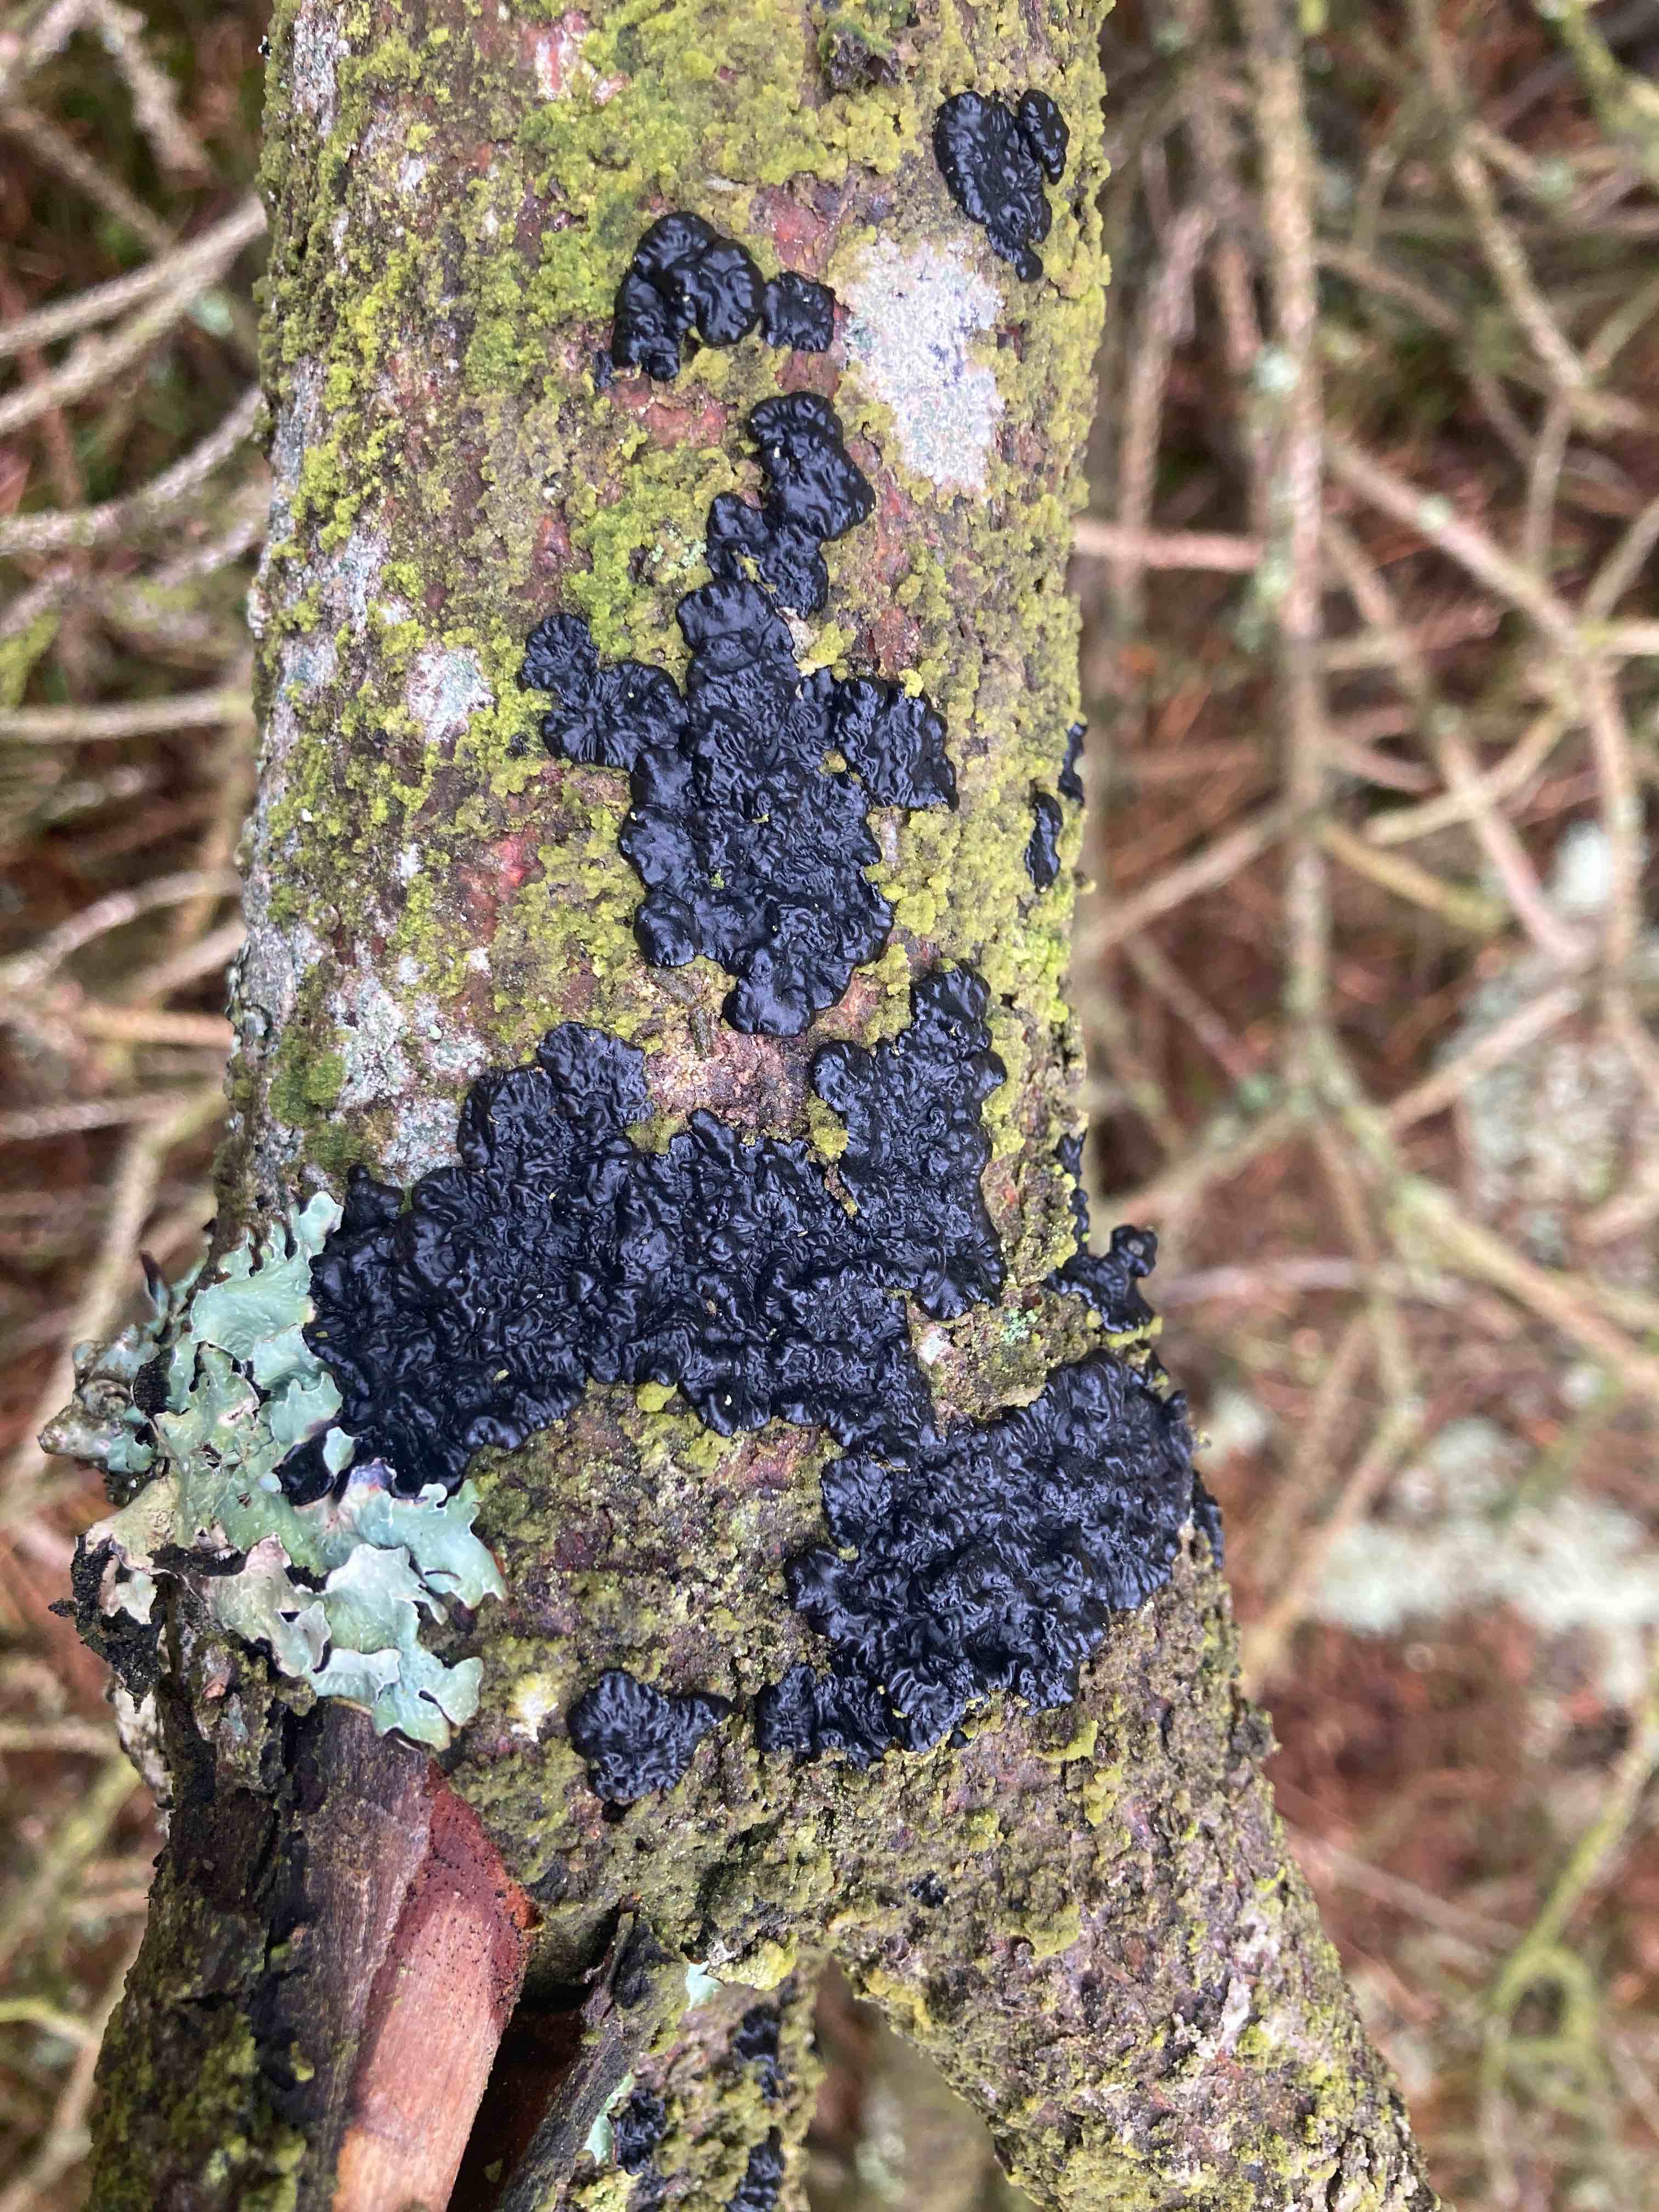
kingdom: Fungi
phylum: Basidiomycota
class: Agaricomycetes
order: Auriculariales
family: Auriculariaceae
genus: Exidia
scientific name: Exidia pithya
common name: gran-bævretop
